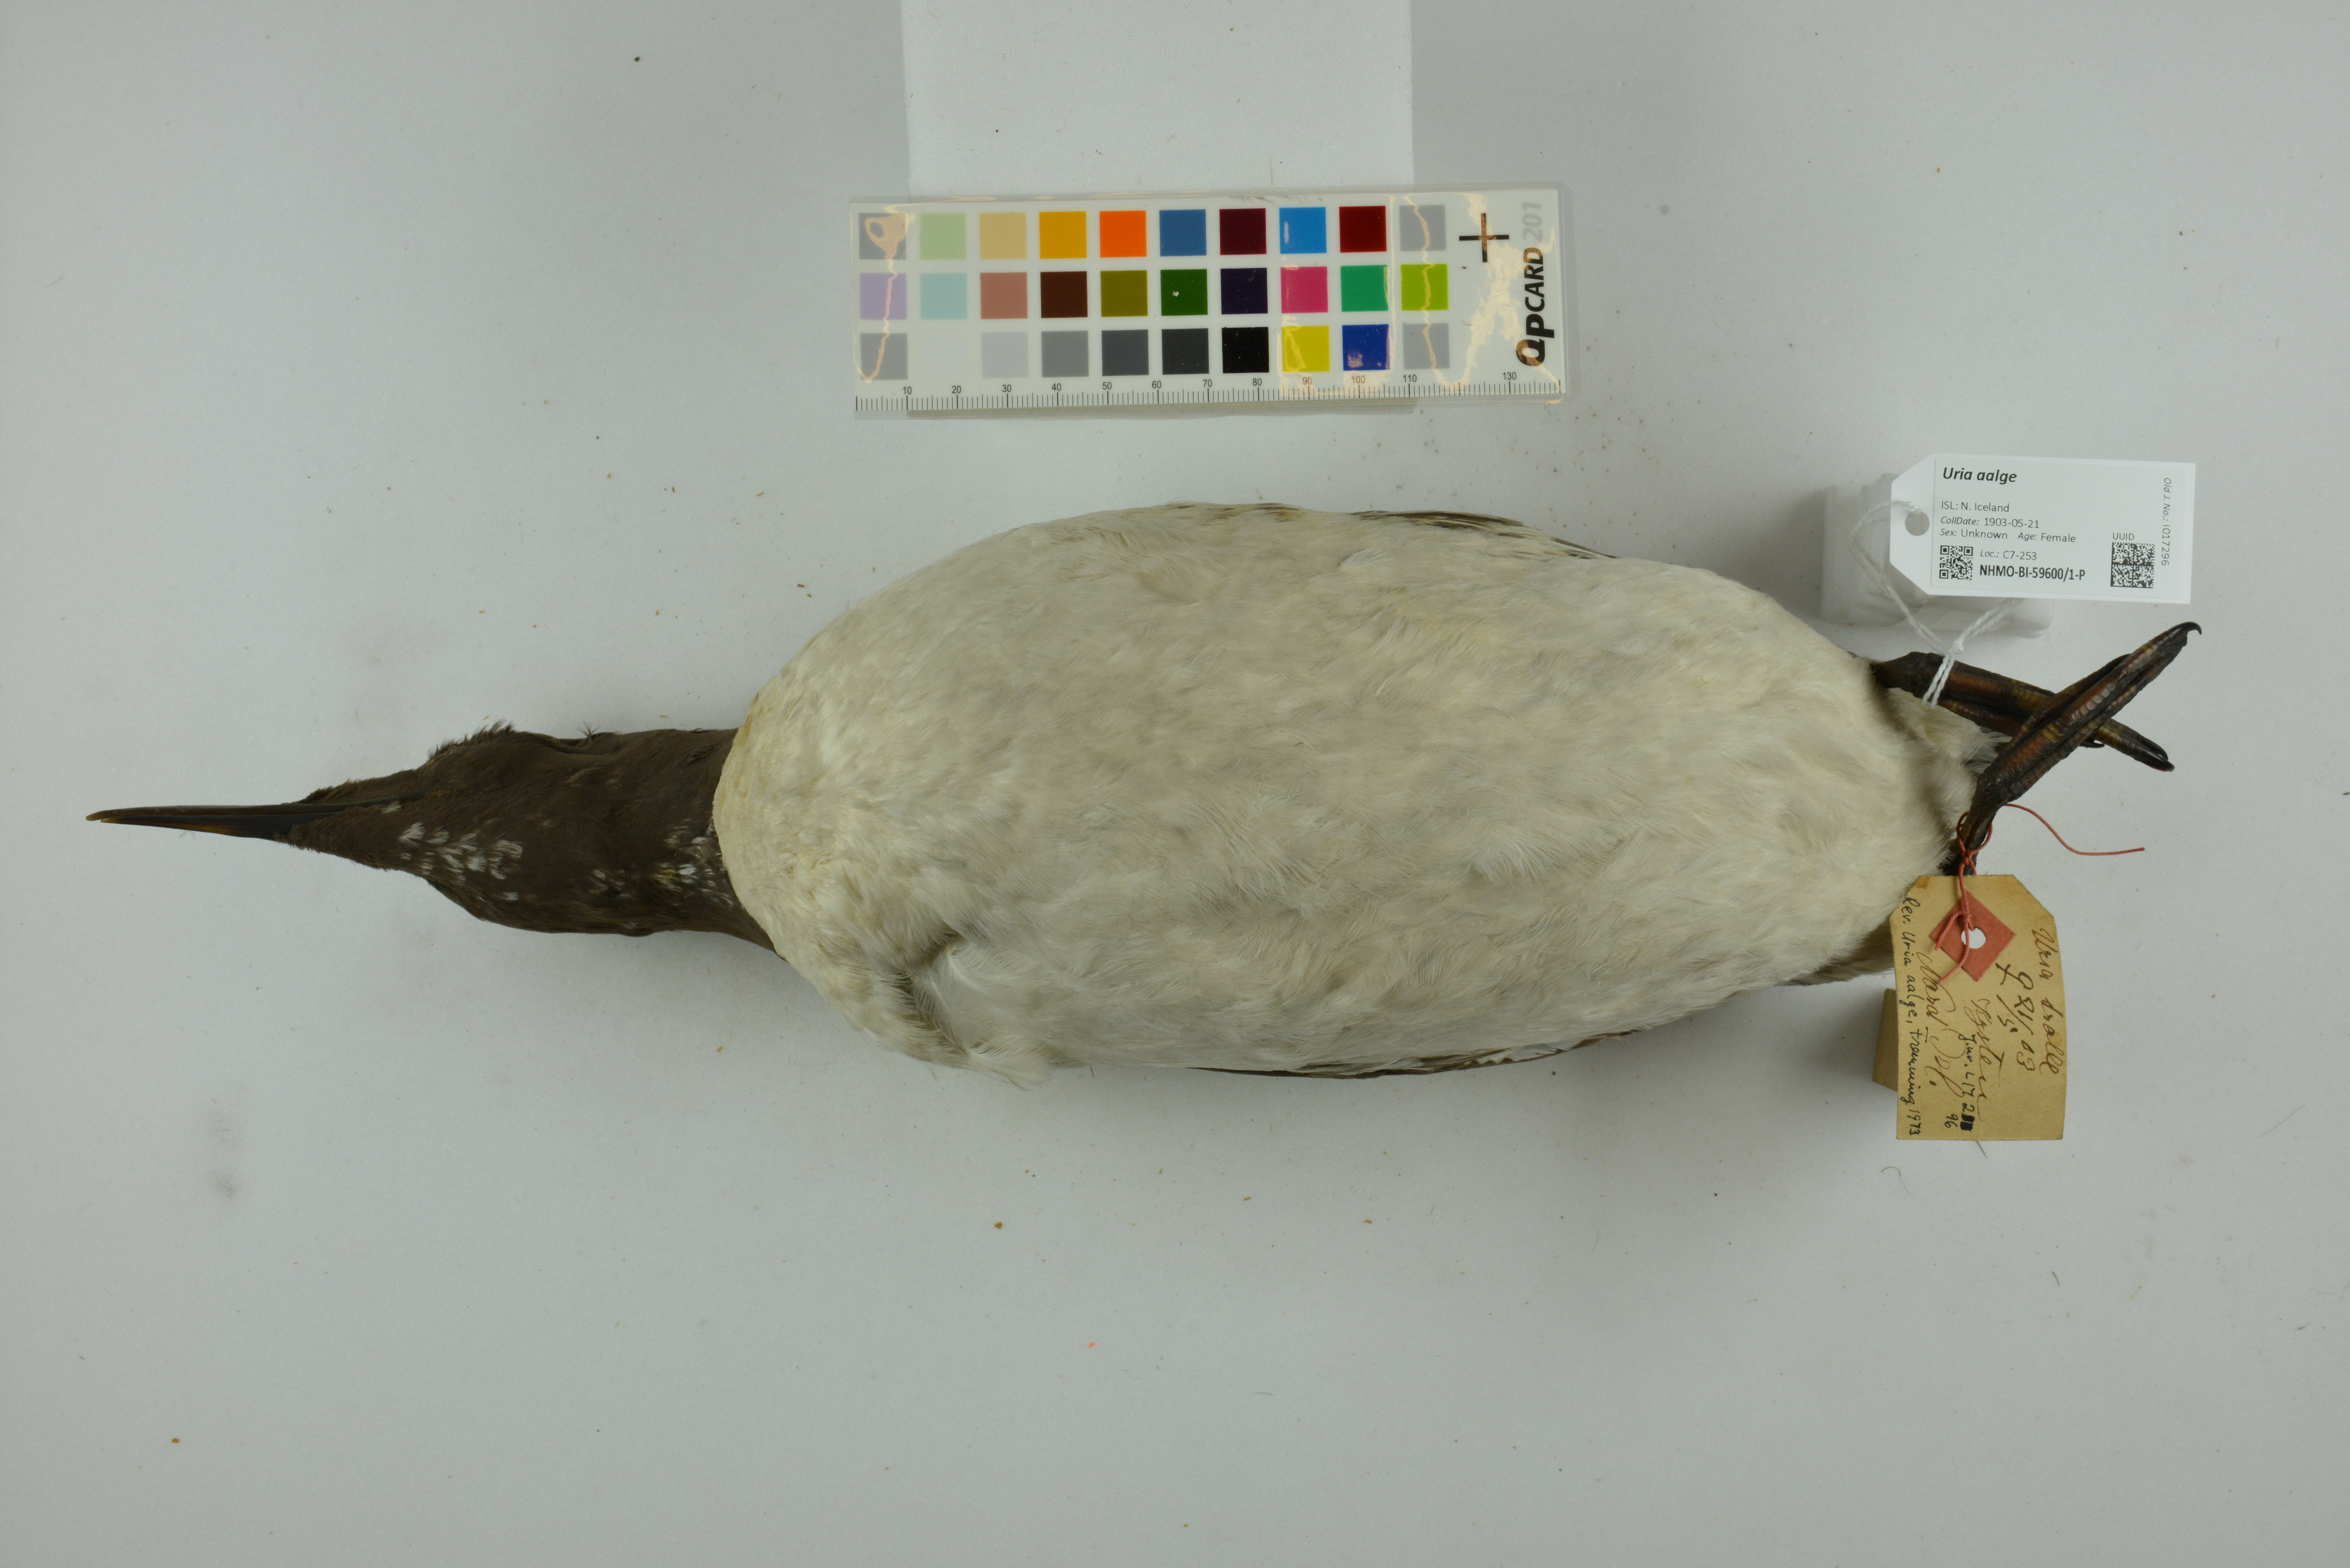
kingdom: Animalia
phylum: Chordata
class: Aves
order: Charadriiformes
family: Alcidae
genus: Uria
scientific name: Uria aalge
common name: Common murre
